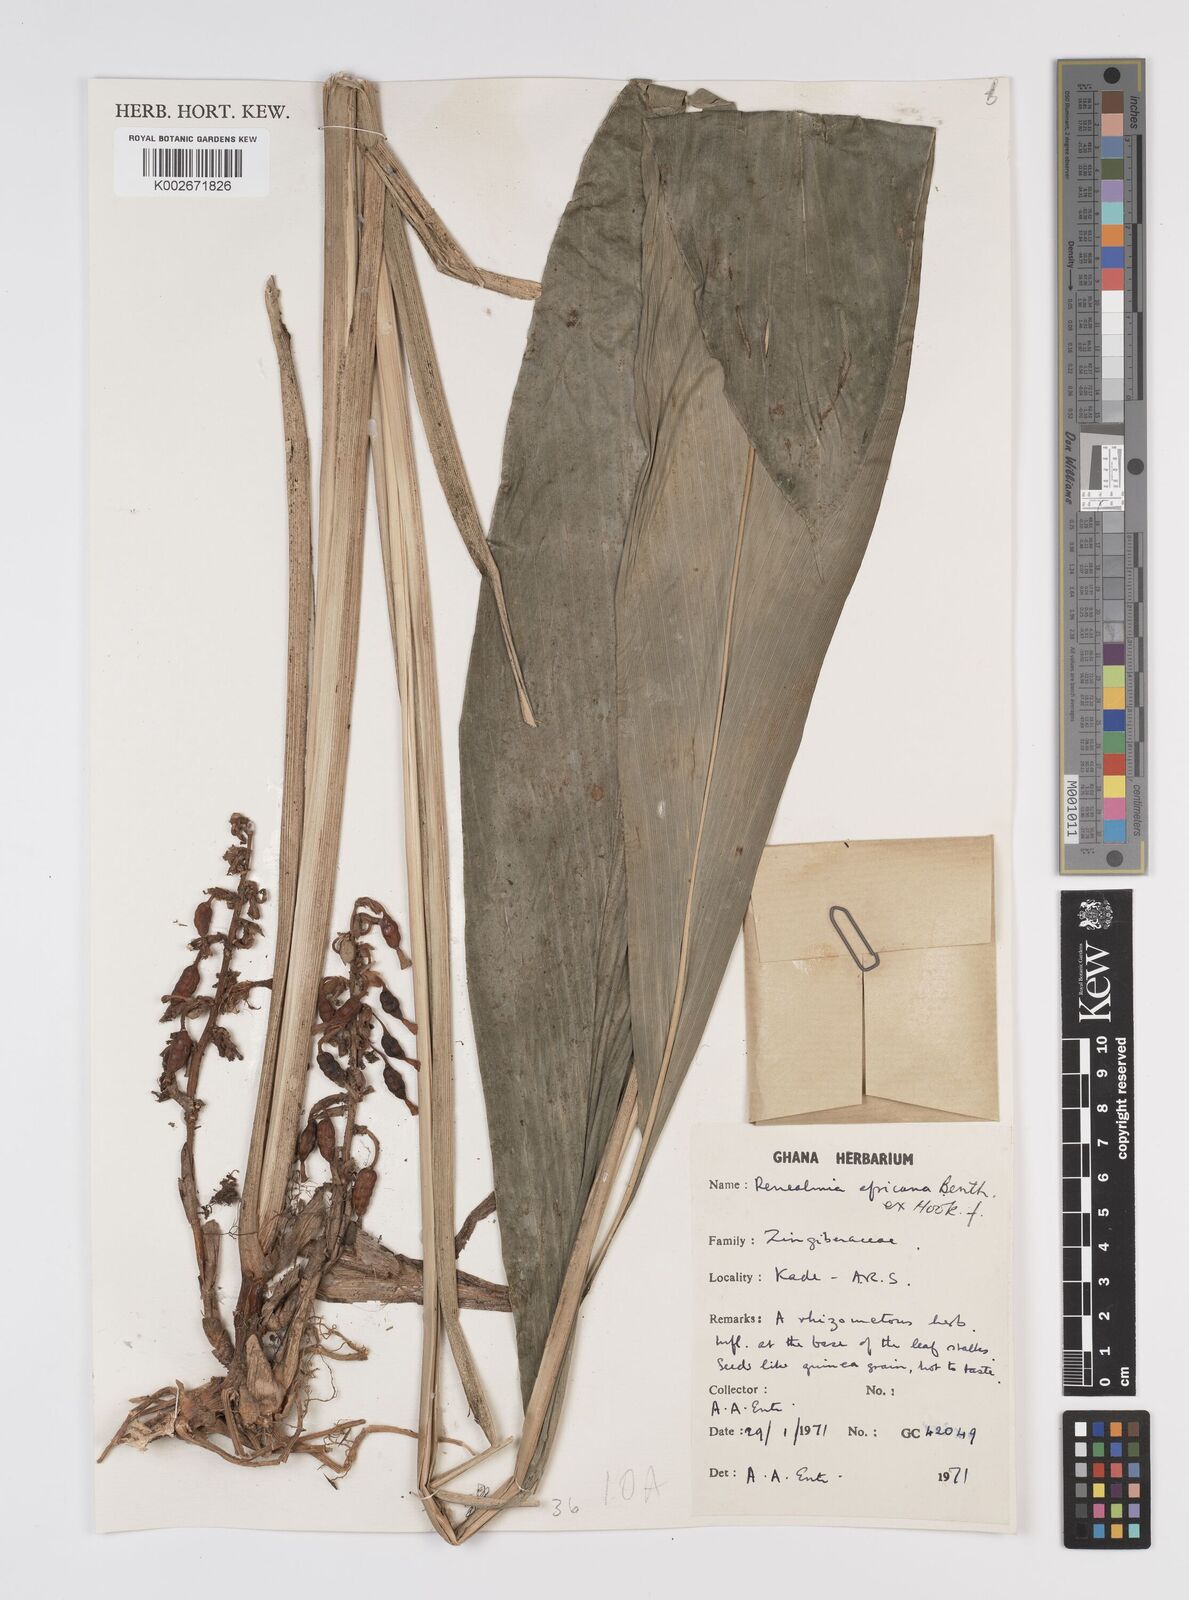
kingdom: Plantae
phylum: Tracheophyta
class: Liliopsida
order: Zingiberales
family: Zingiberaceae
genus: Renealmia
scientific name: Renealmia africana
